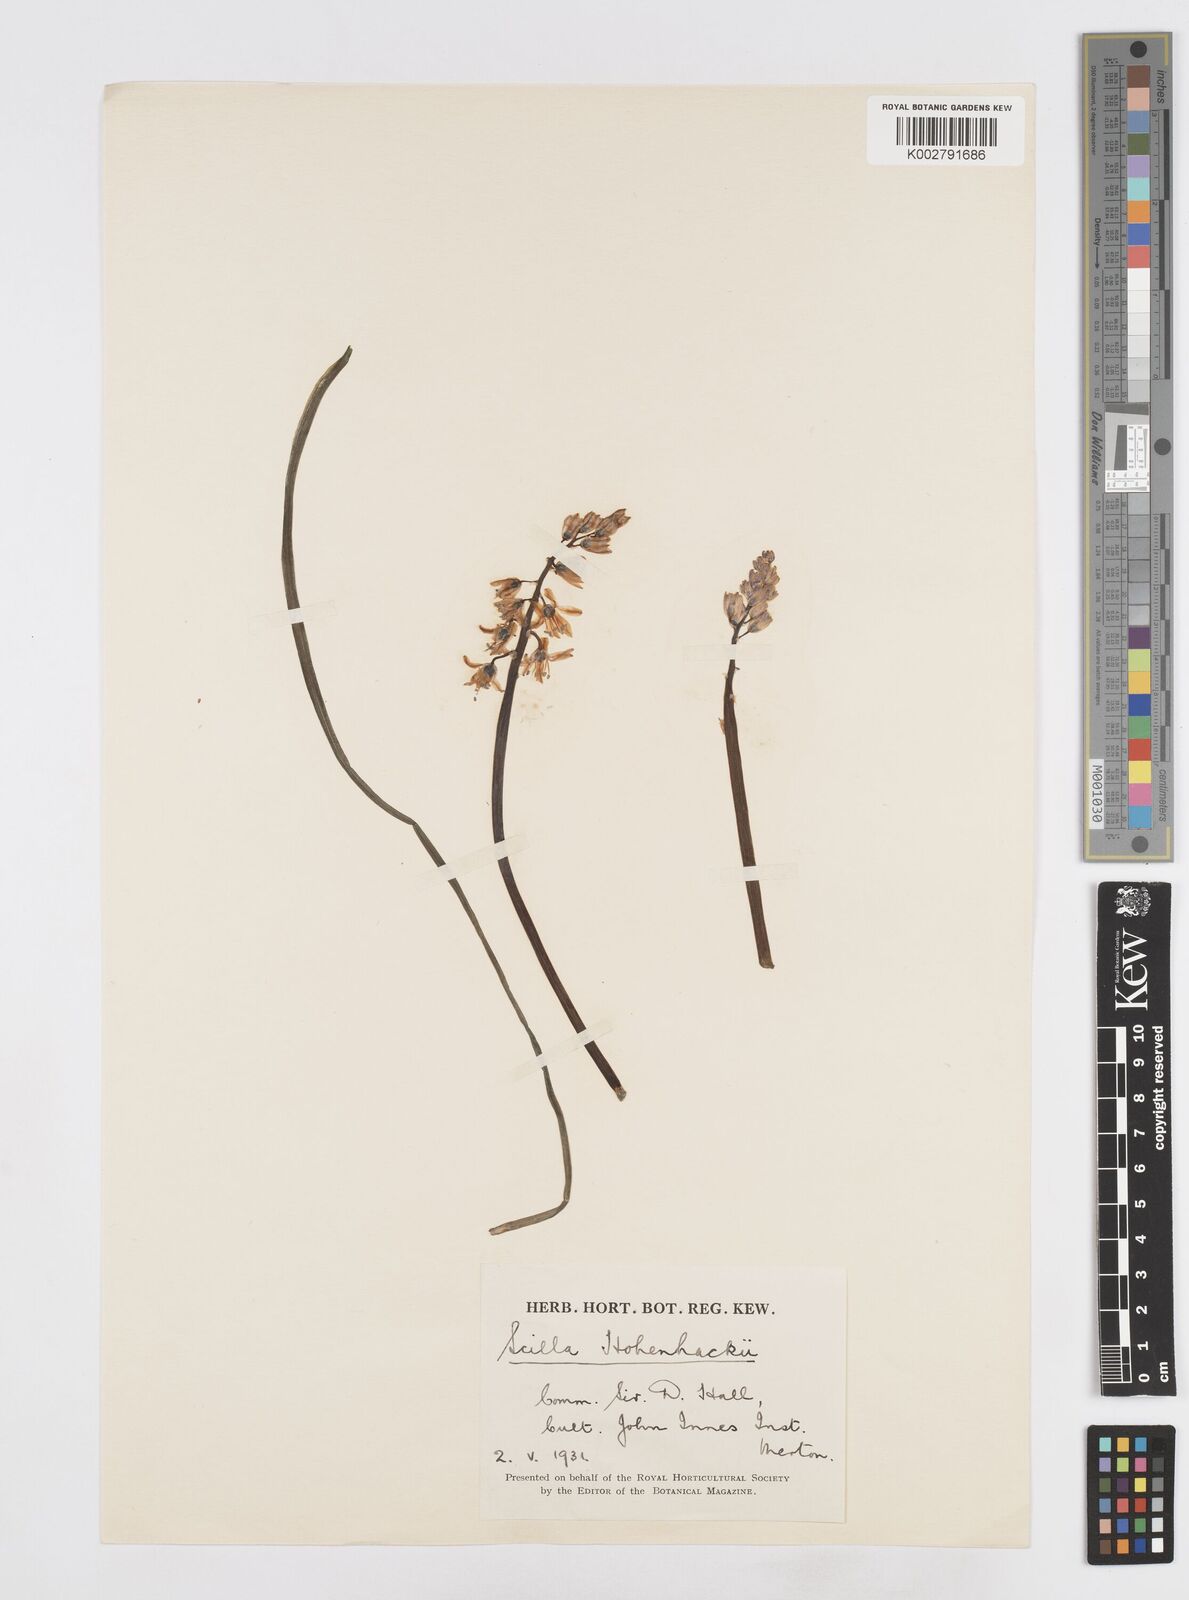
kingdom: Plantae
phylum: Tracheophyta
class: Liliopsida
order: Asparagales
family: Asparagaceae
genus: Scilla
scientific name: Scilla bifolia
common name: Alpine squill
